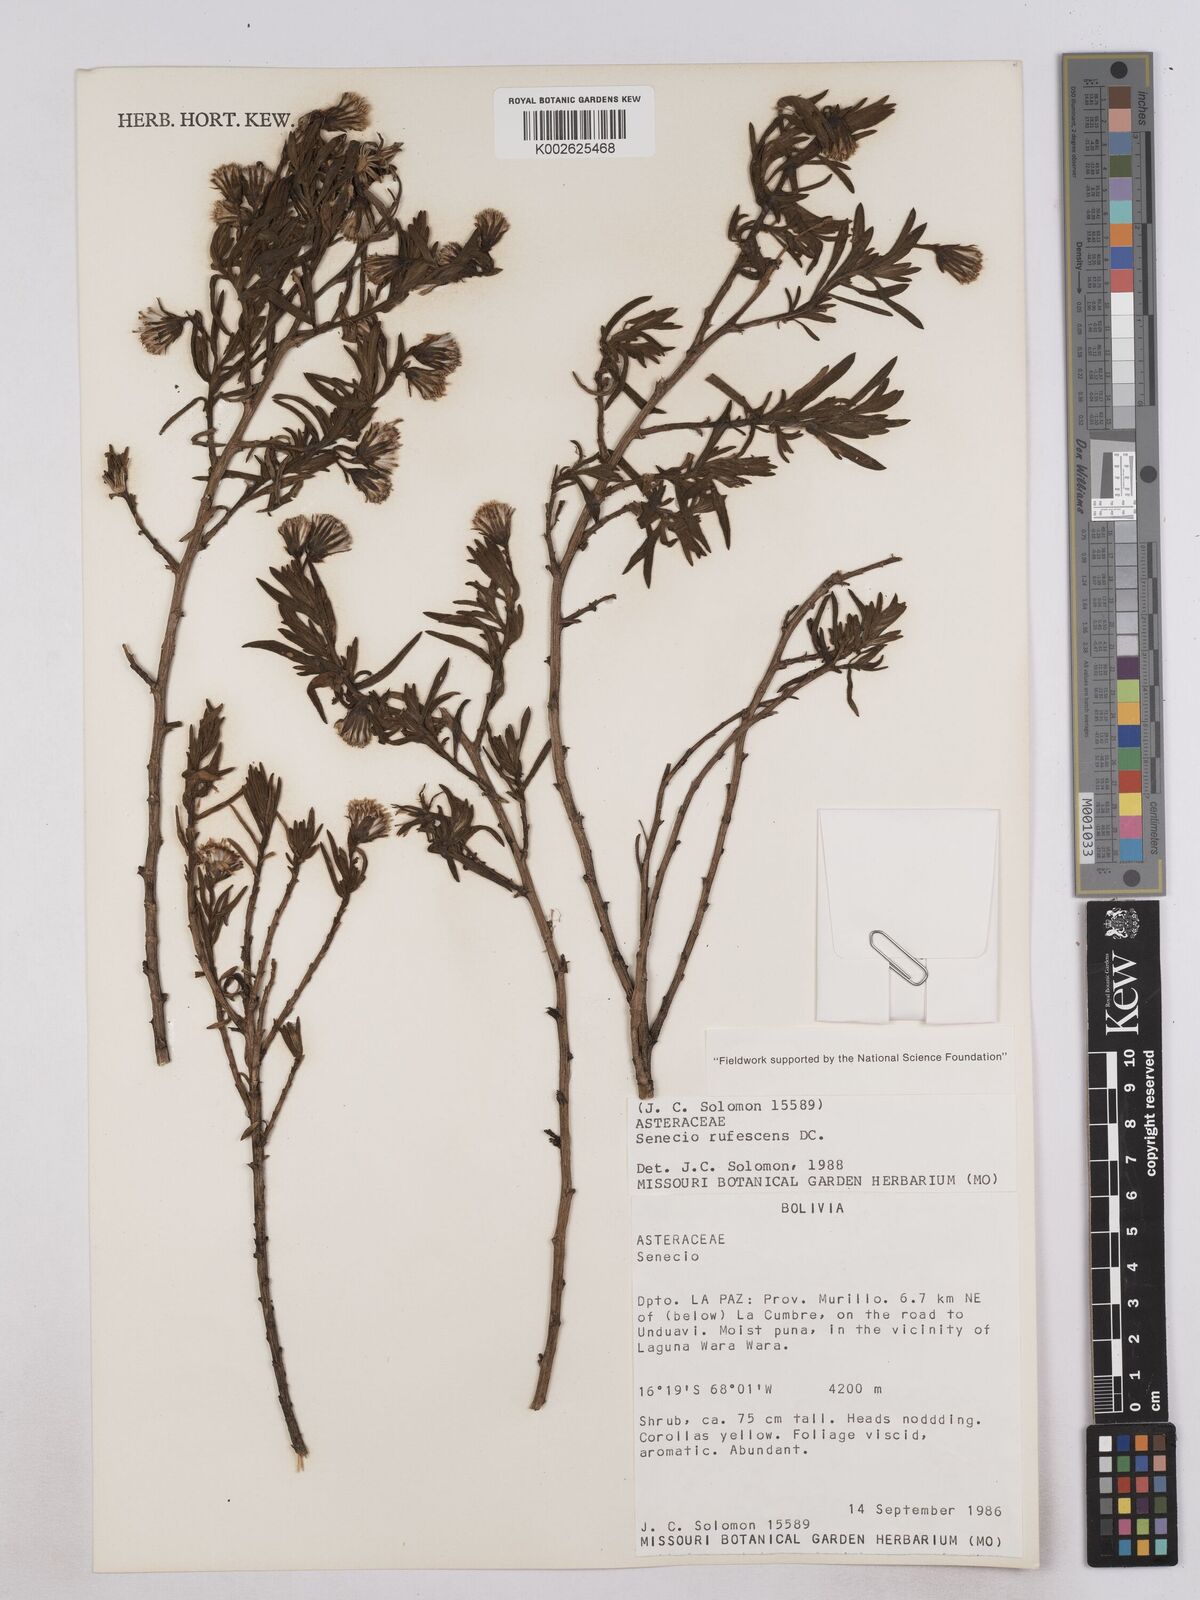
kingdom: Plantae
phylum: Tracheophyta
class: Magnoliopsida
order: Asterales
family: Asteraceae
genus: Culcitium
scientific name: Culcitium canescens
